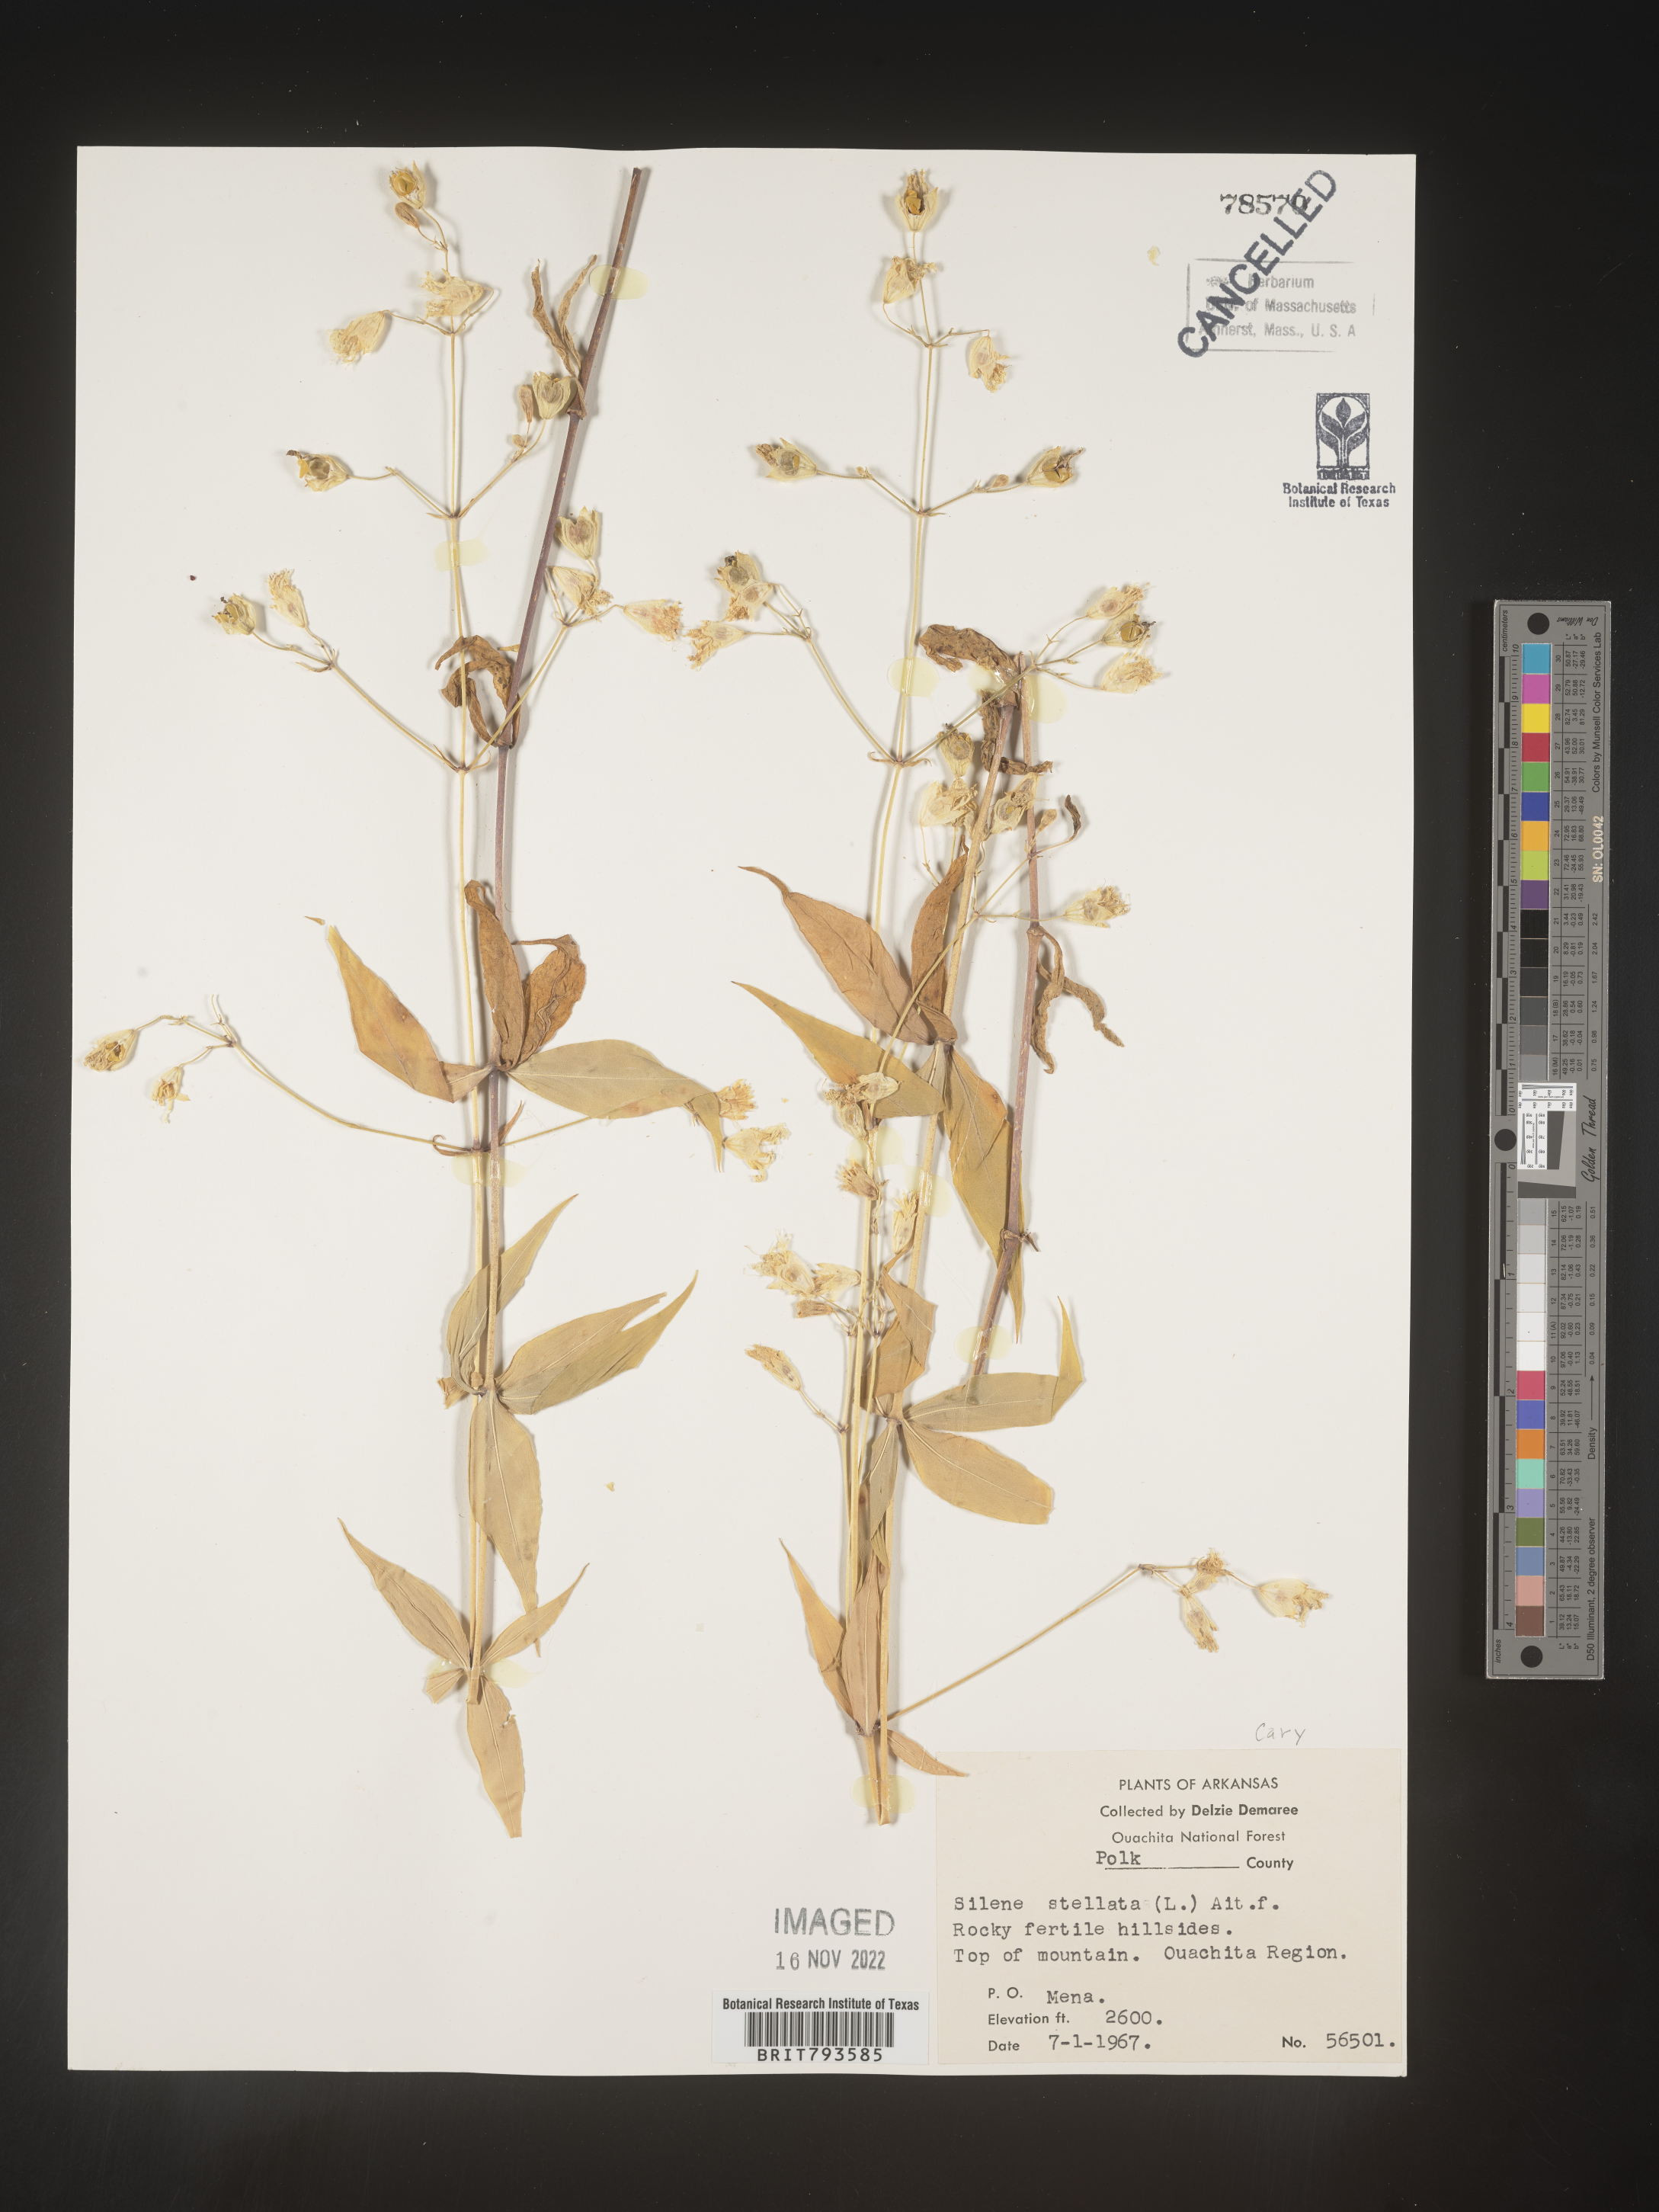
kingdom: Plantae
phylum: Tracheophyta
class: Magnoliopsida
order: Caryophyllales
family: Caryophyllaceae
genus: Silene
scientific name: Silene stellata
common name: Starry campion
